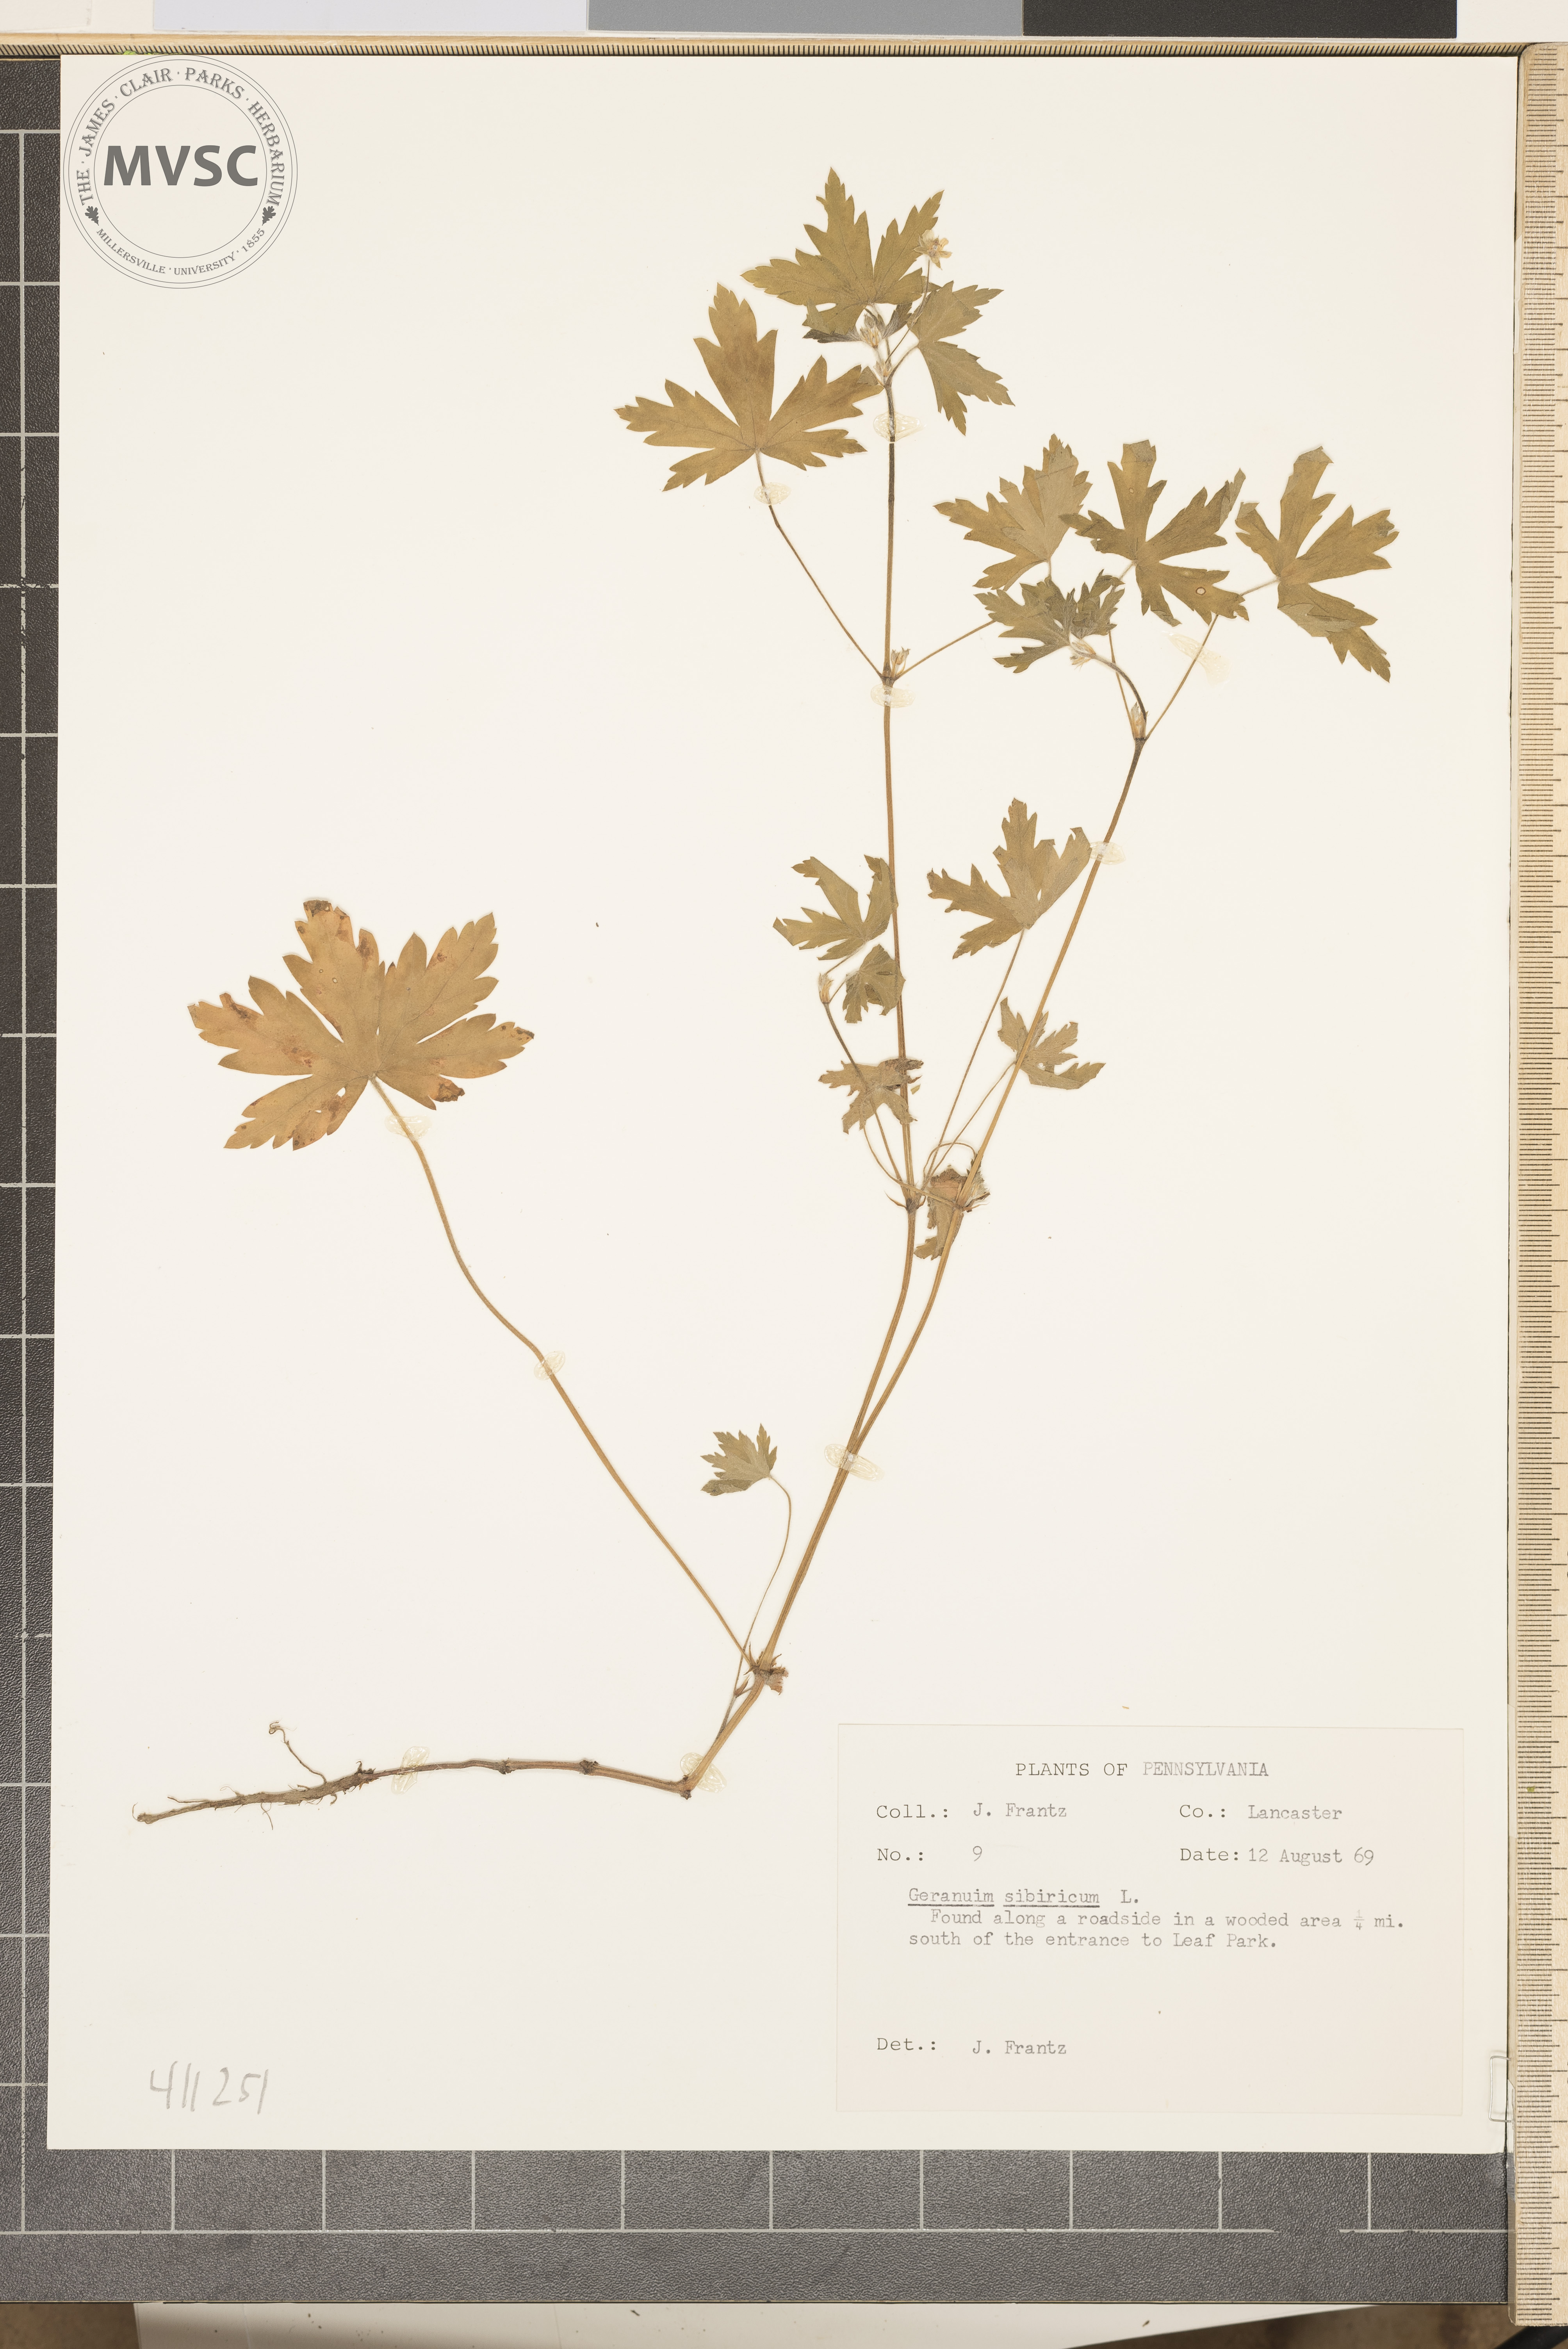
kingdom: Plantae
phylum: Tracheophyta
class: Magnoliopsida
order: Geraniales
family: Geraniaceae
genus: Geranium
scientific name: Geranium sibiricum
